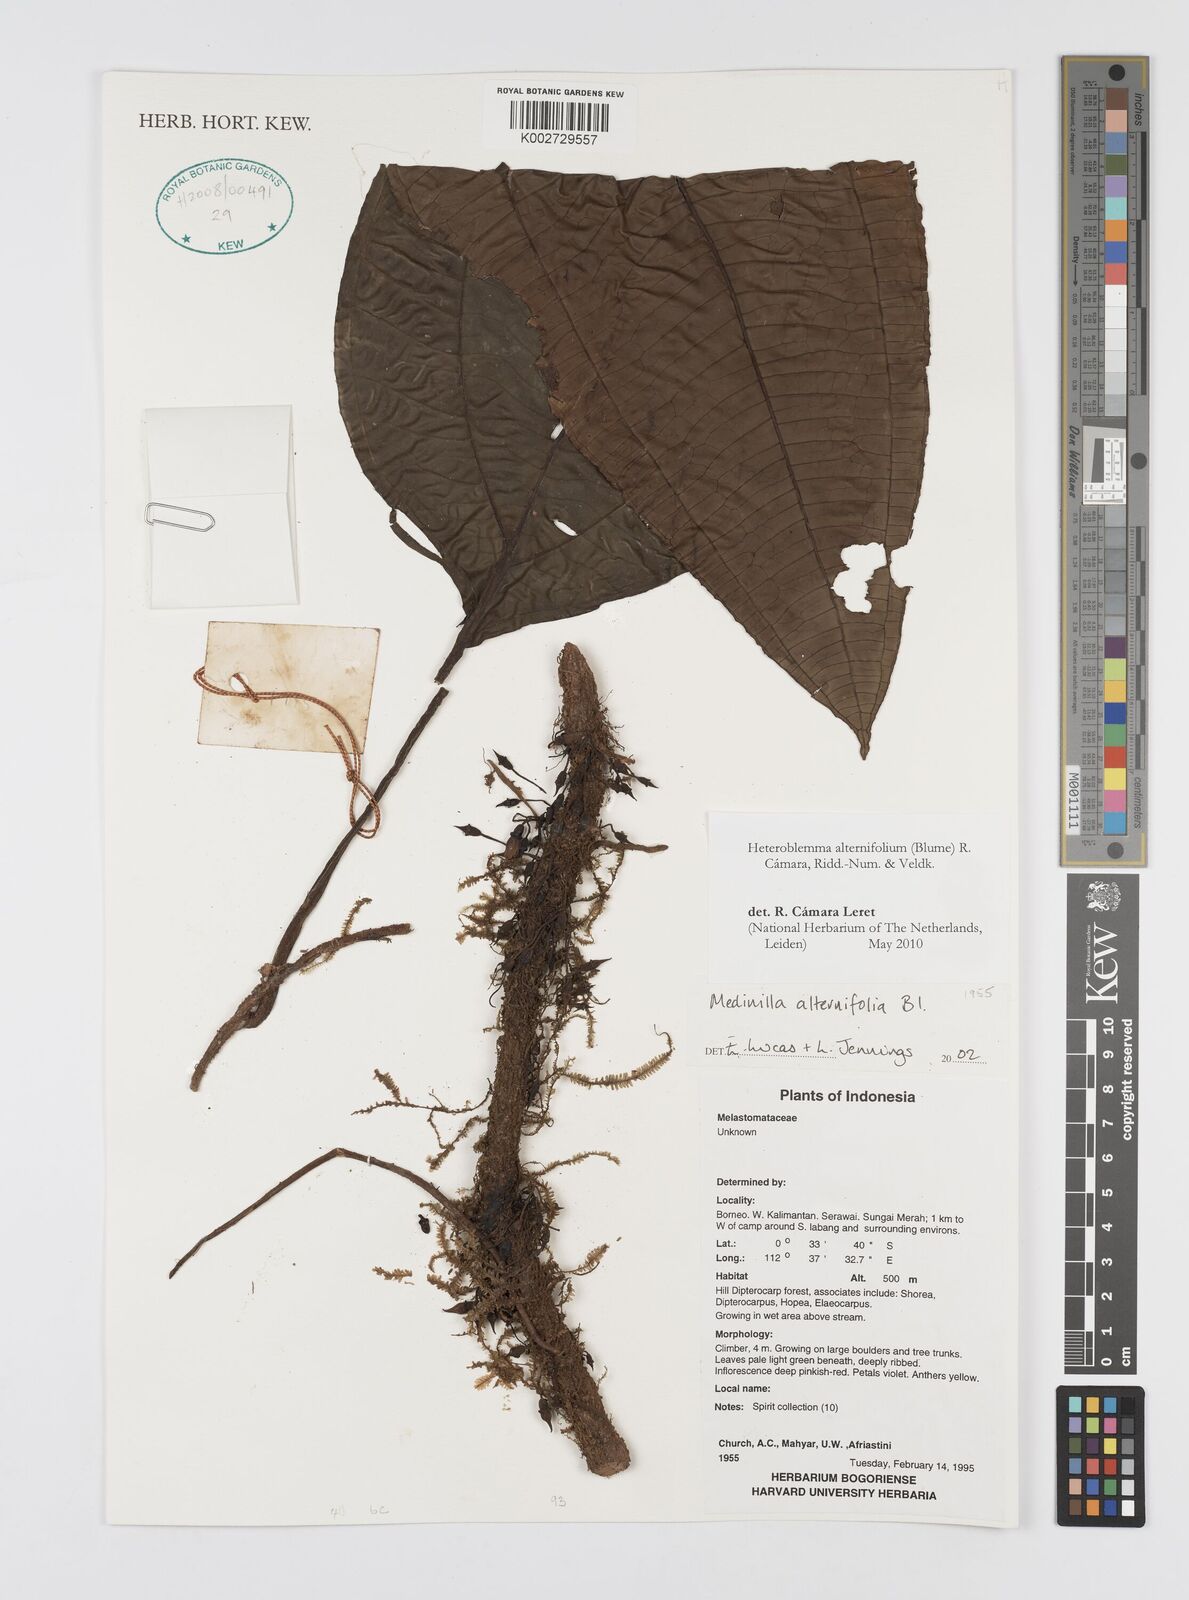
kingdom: Plantae
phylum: Tracheophyta
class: Magnoliopsida
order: Myrtales
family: Melastomataceae
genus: Heteroblemma
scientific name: Heteroblemma alternifolium
